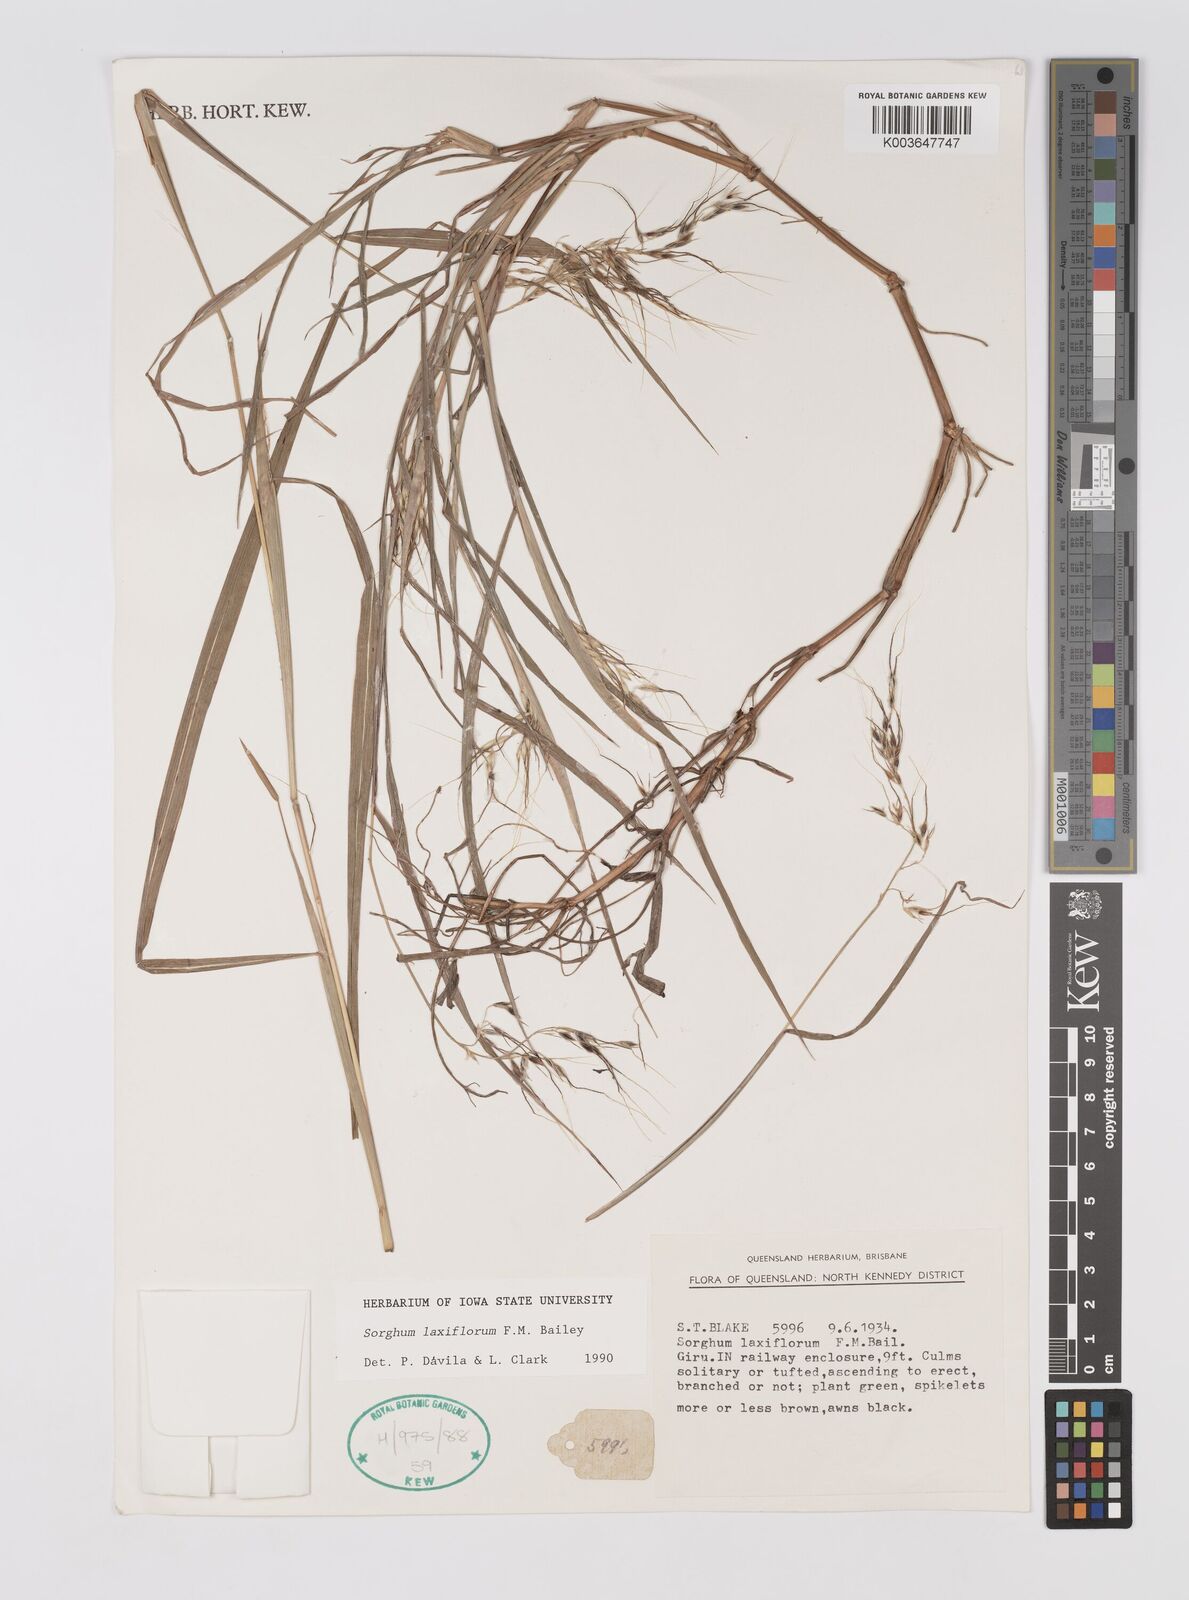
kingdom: Plantae
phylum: Tracheophyta
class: Liliopsida
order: Poales
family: Poaceae
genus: Sorghum
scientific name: Sorghum laxiflorum
